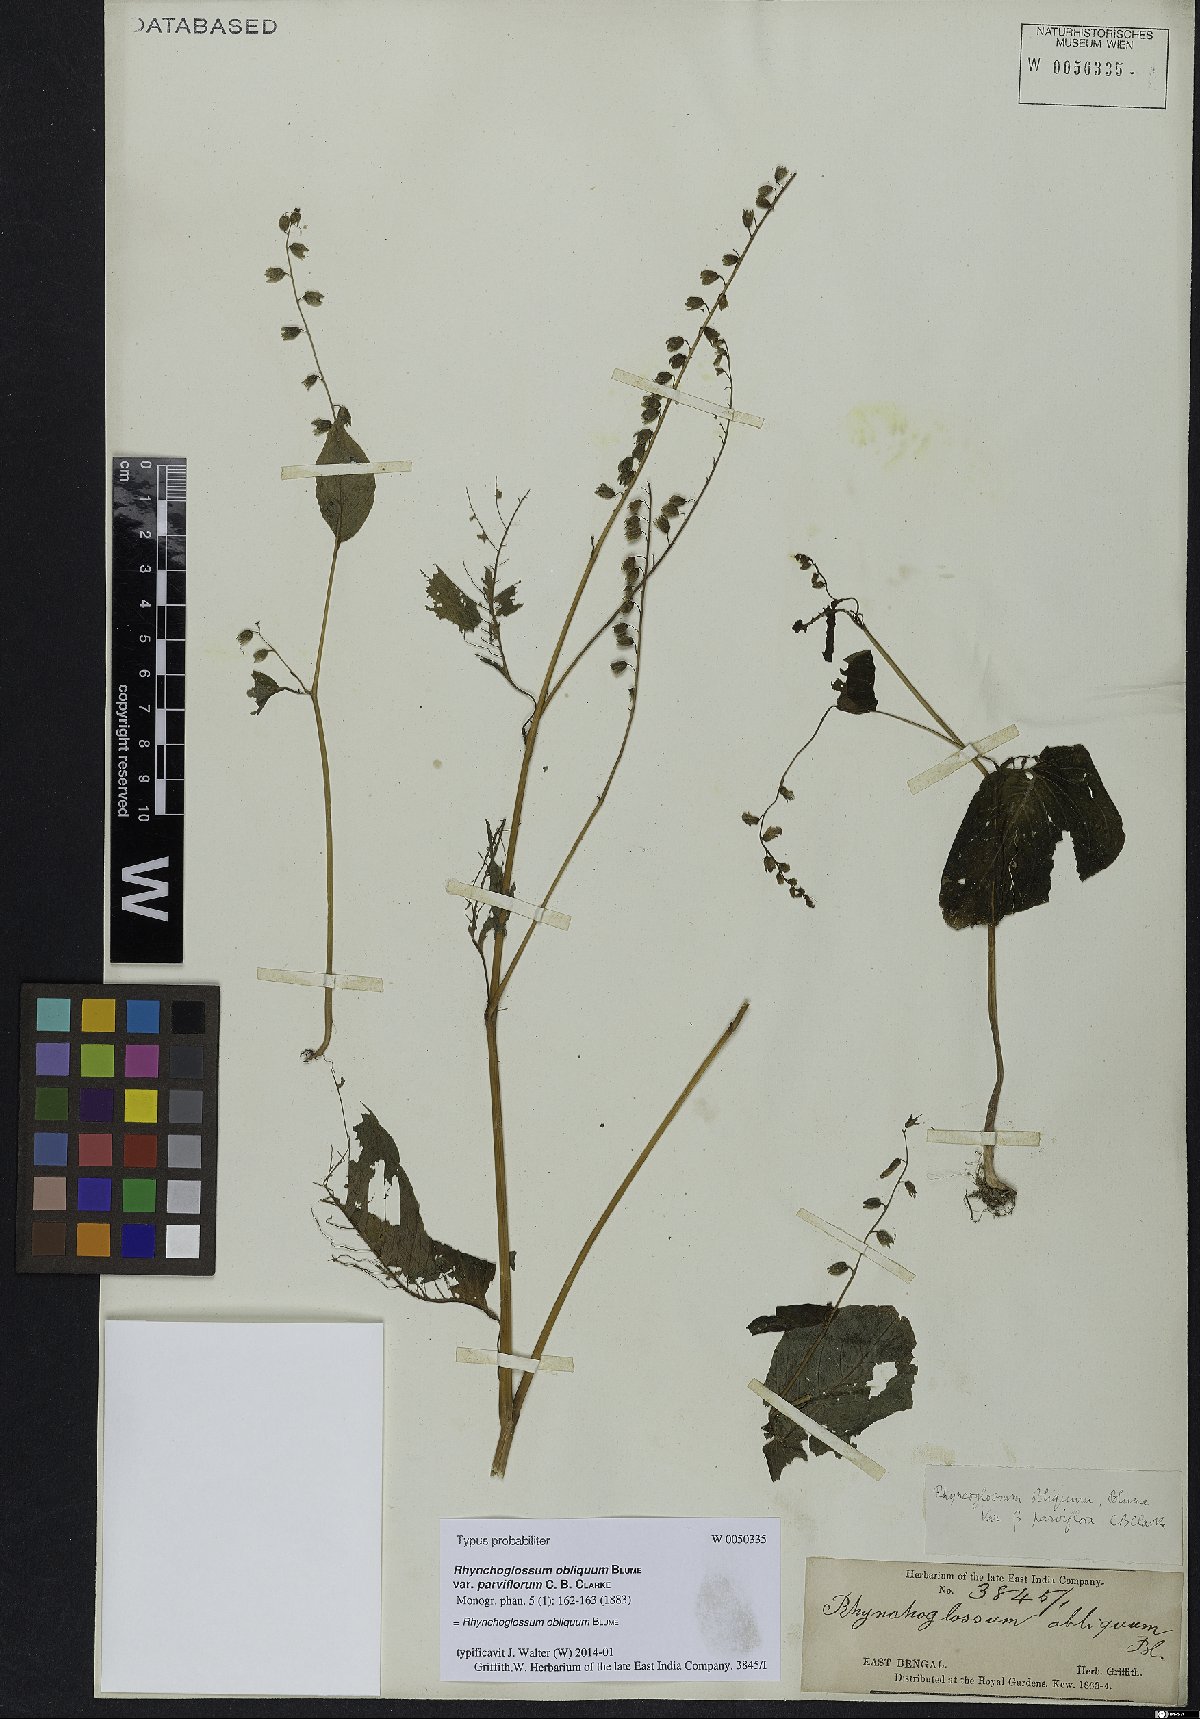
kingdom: Plantae
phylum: Tracheophyta
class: Magnoliopsida
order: Lamiales
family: Gesneriaceae
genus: Rhynchoglossum
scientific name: Rhynchoglossum obliquum
